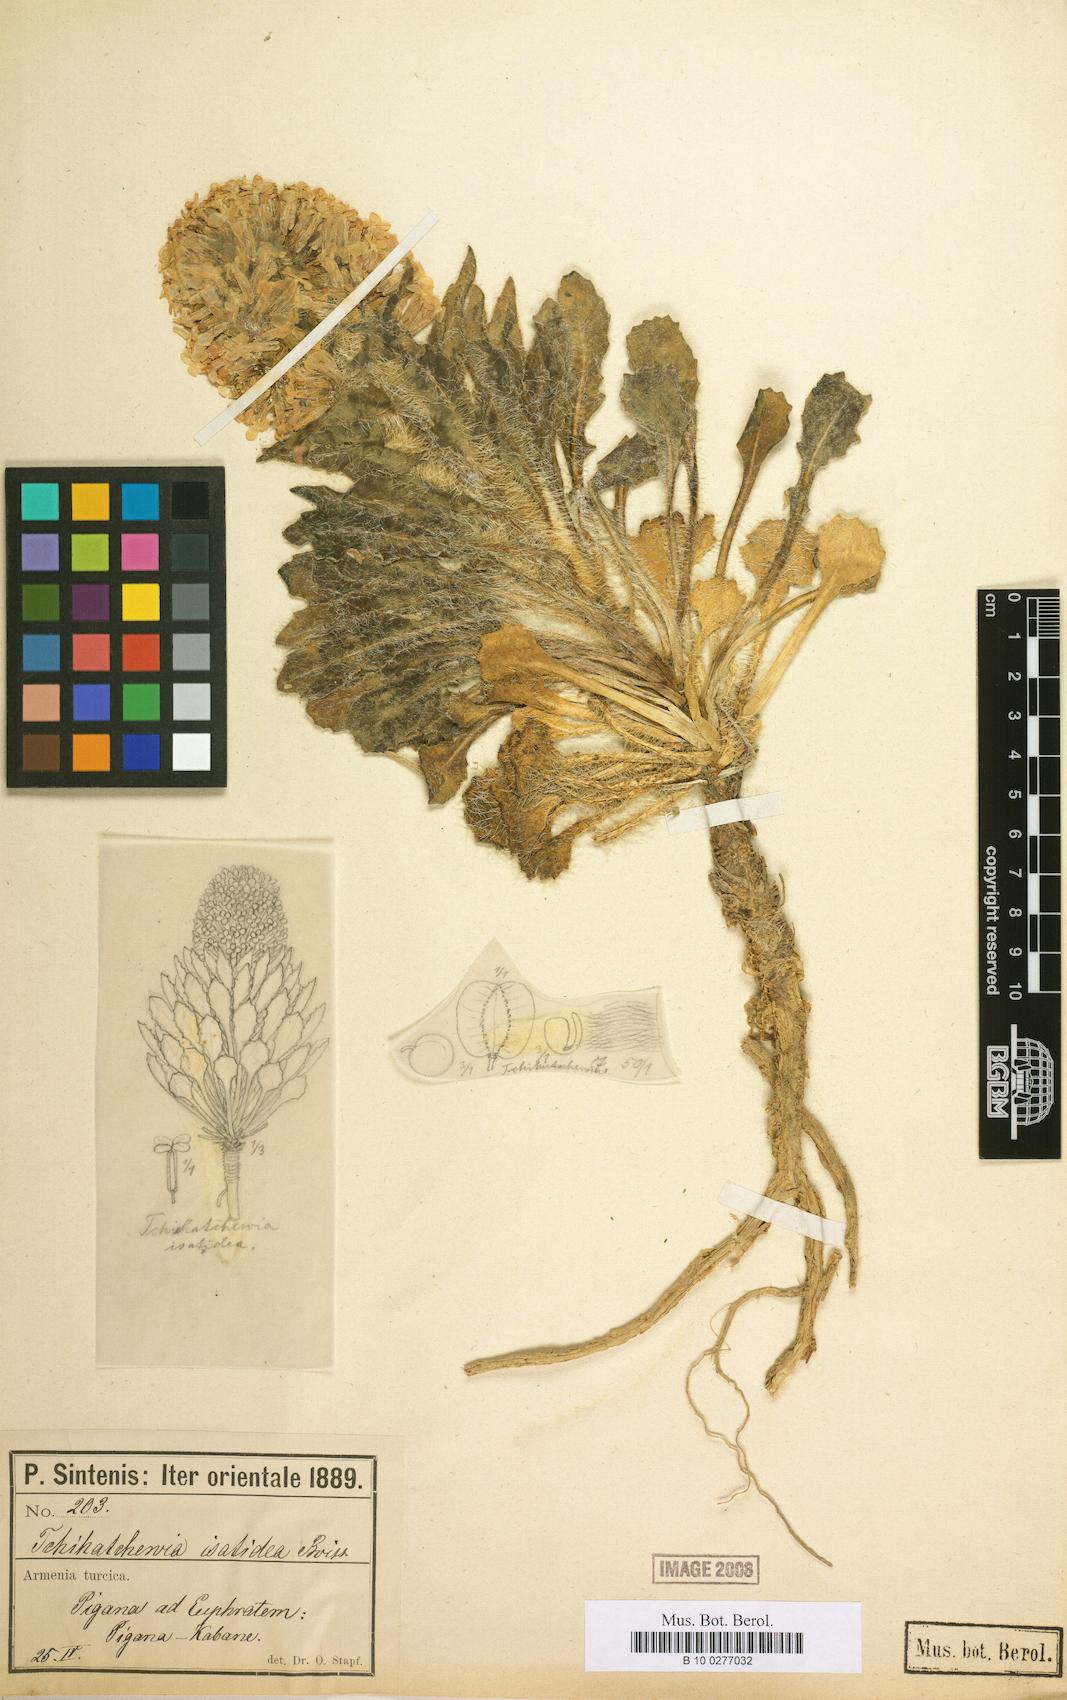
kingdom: Plantae
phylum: Tracheophyta
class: Magnoliopsida
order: Brassicales
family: Brassicaceae
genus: Hesperis
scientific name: Hesperis isatidea
